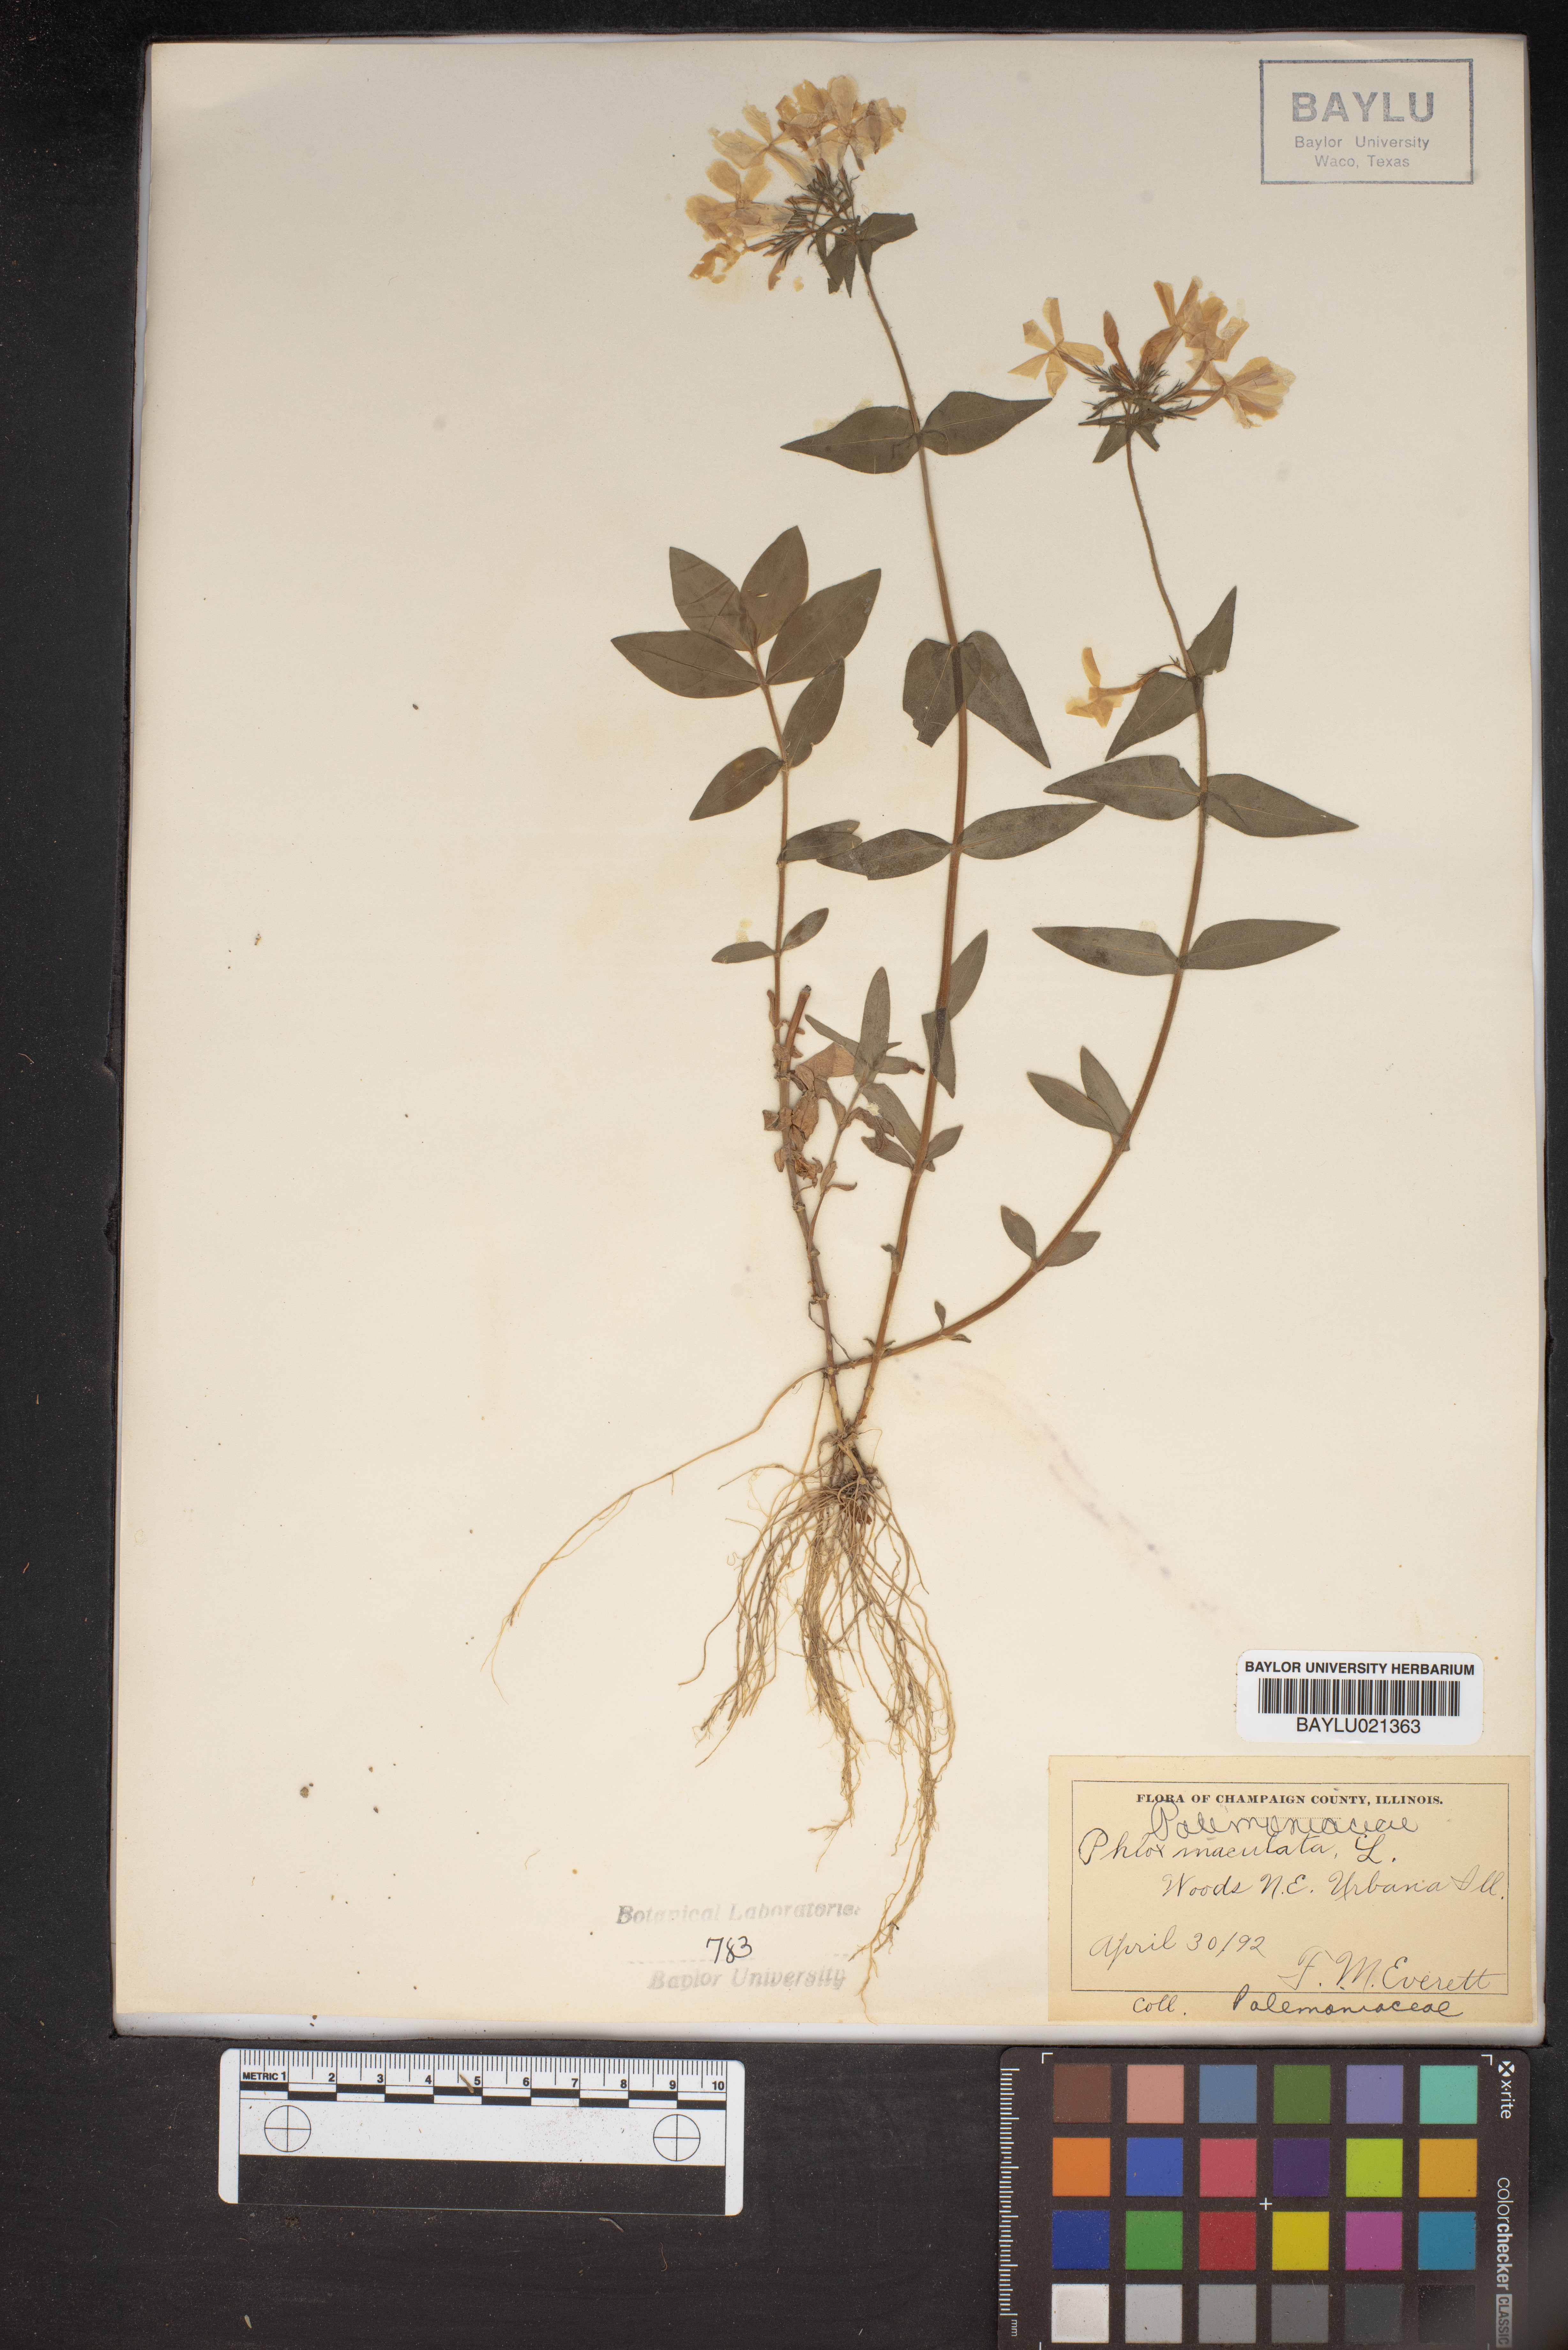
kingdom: Plantae
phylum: Tracheophyta
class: Magnoliopsida
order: Ericales
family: Polemoniaceae
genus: Phlox
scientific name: Phlox maculata
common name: Meadow phlox
